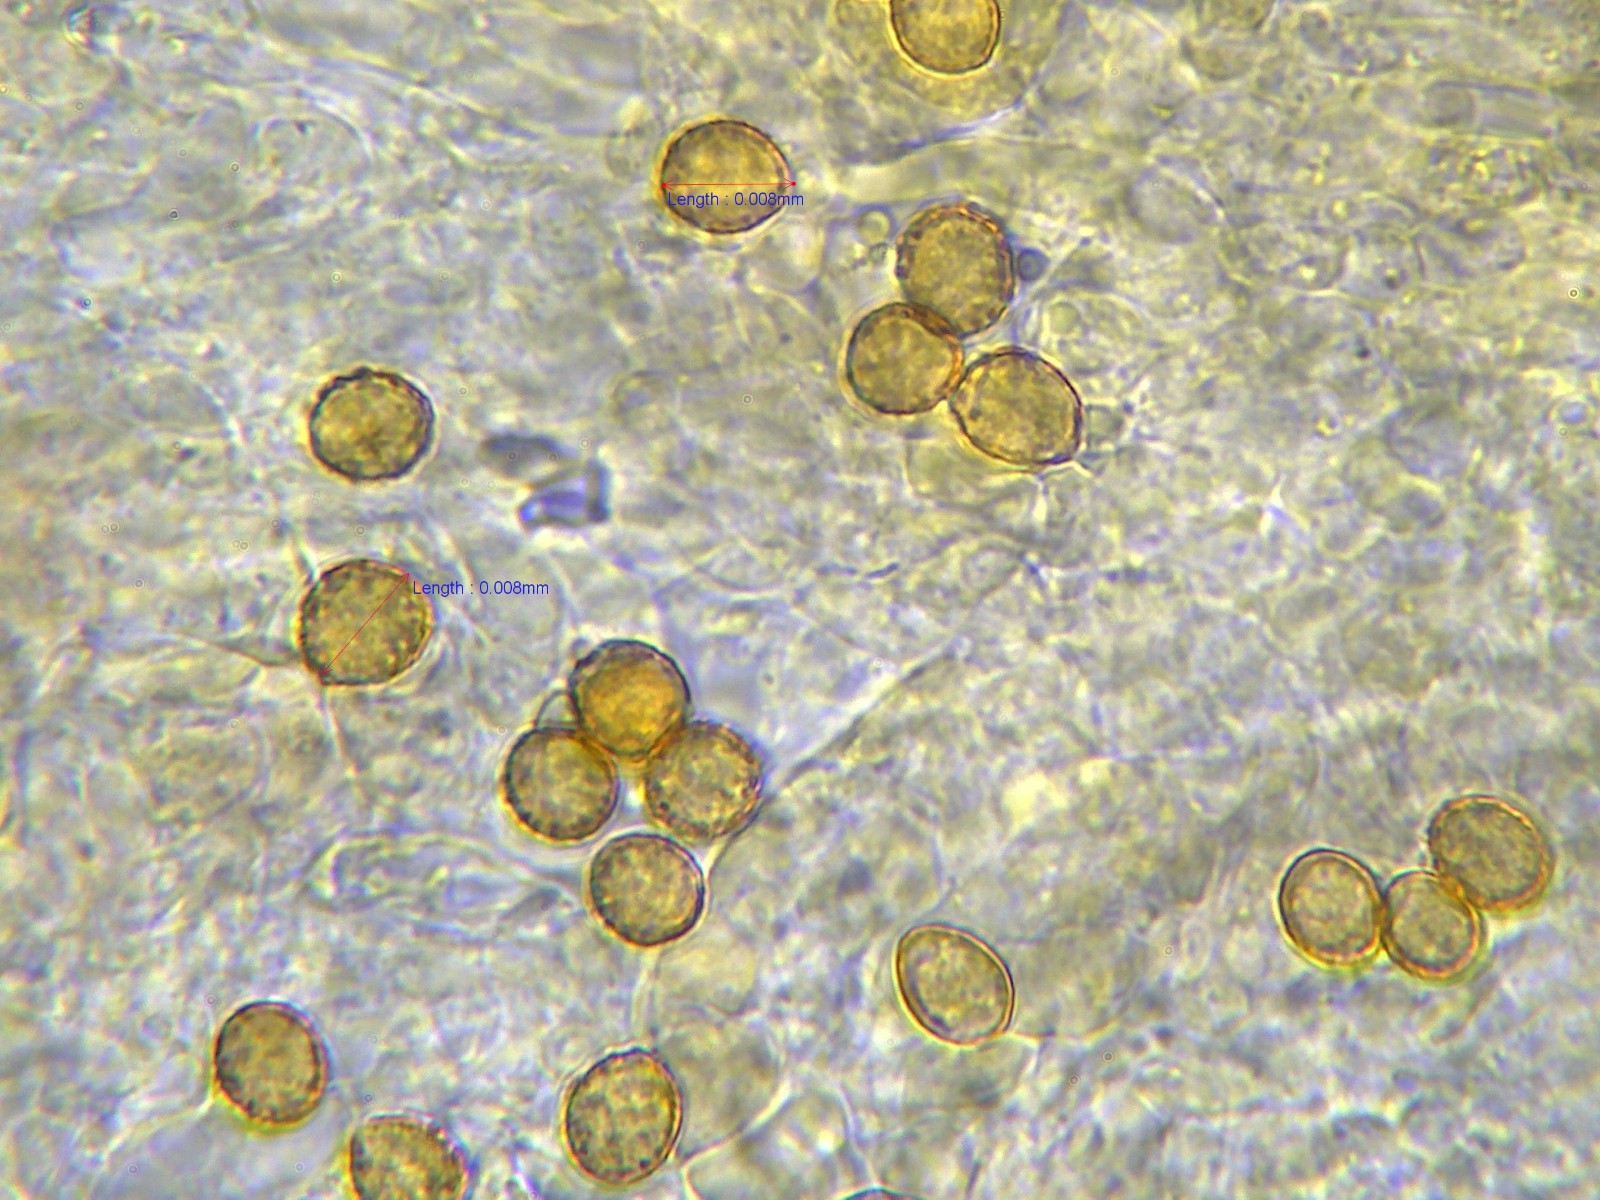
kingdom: Fungi
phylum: Basidiomycota
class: Agaricomycetes
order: Agaricales
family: Cortinariaceae
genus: Cortinarius
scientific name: Cortinarius pelerinii
